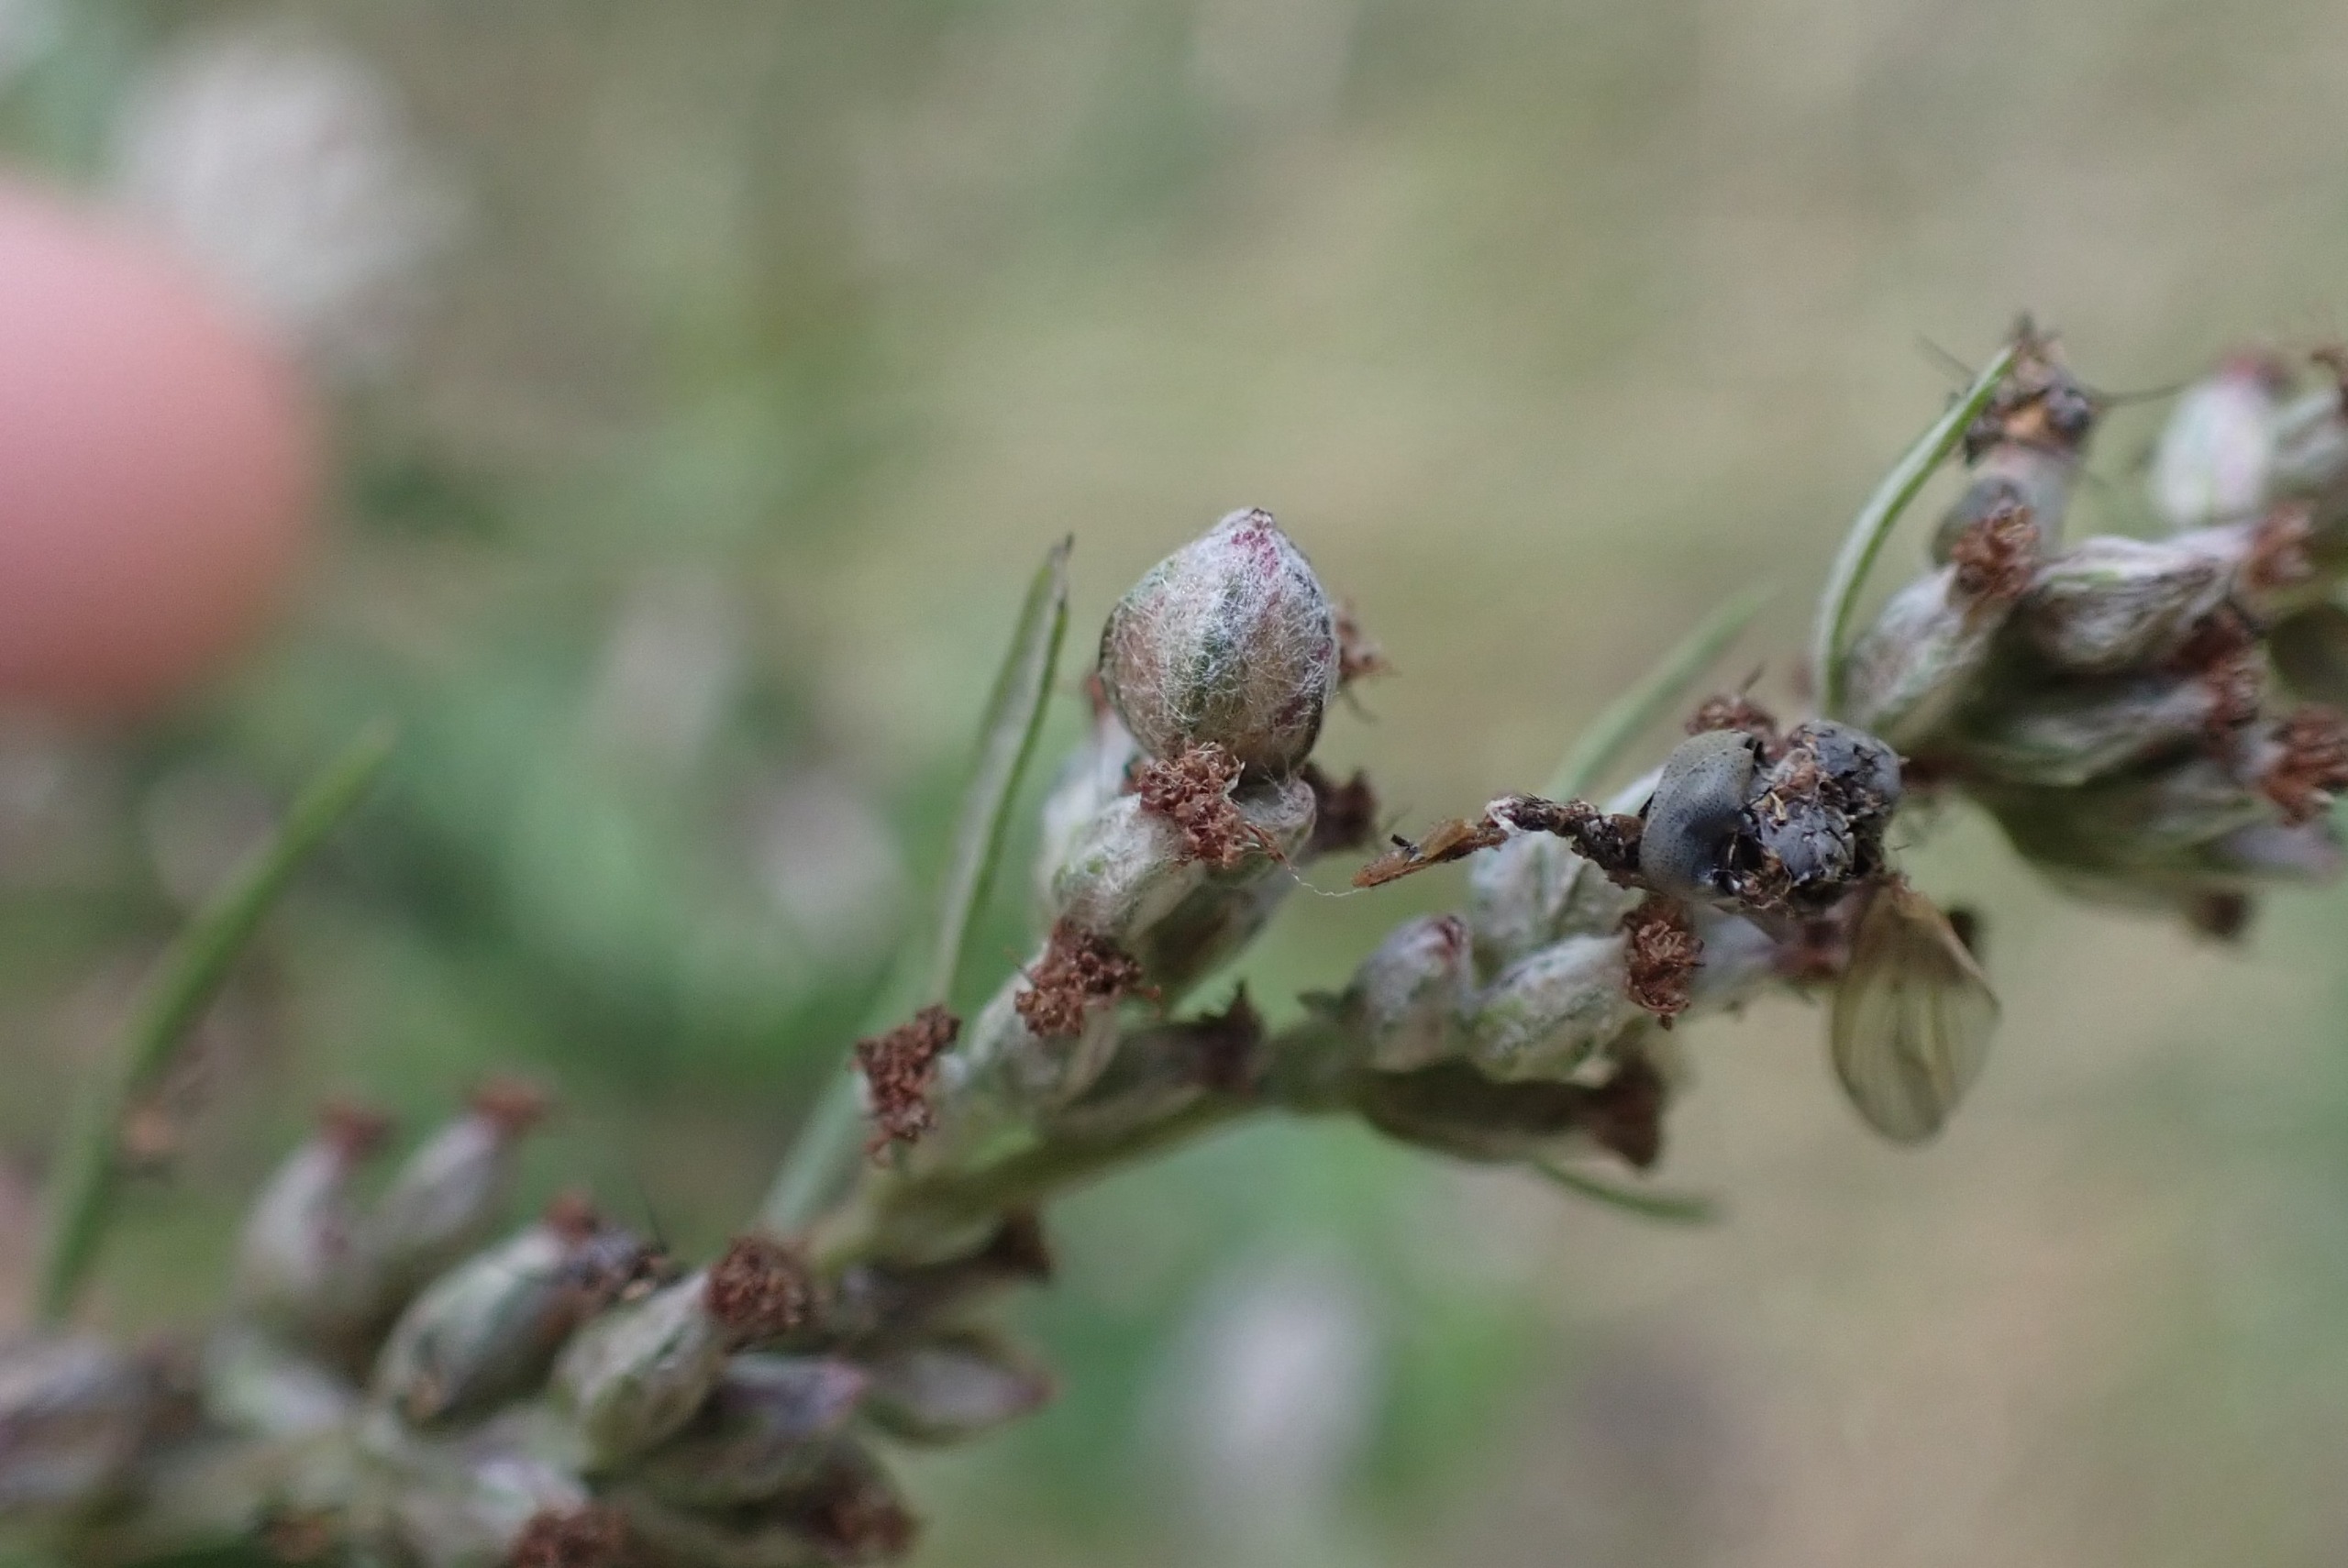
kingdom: Animalia
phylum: Arthropoda
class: Insecta
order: Diptera
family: Cecidomyiidae
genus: Ametrodiplosis
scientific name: Ametrodiplosis rudimentalis
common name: Bynkekurvgalmyg
